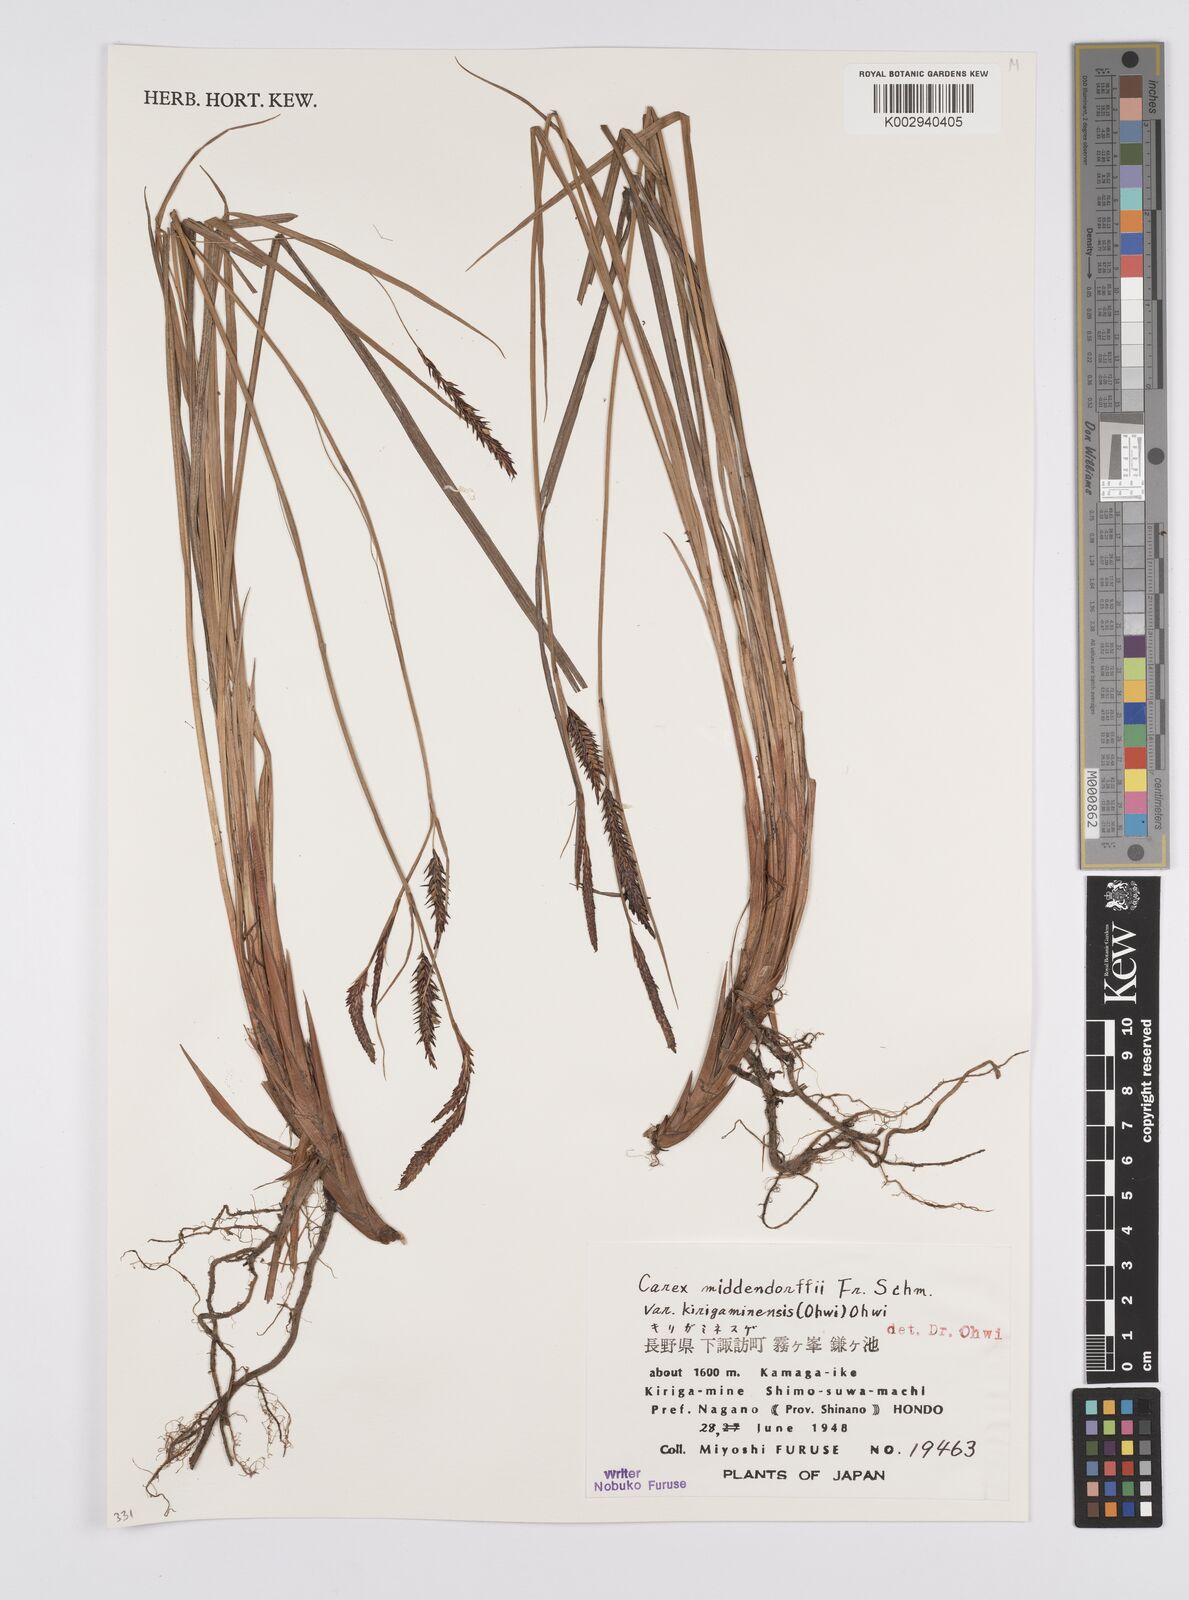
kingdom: Plantae
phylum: Tracheophyta
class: Liliopsida
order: Poales
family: Cyperaceae
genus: Carex
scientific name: Carex middendorffii
